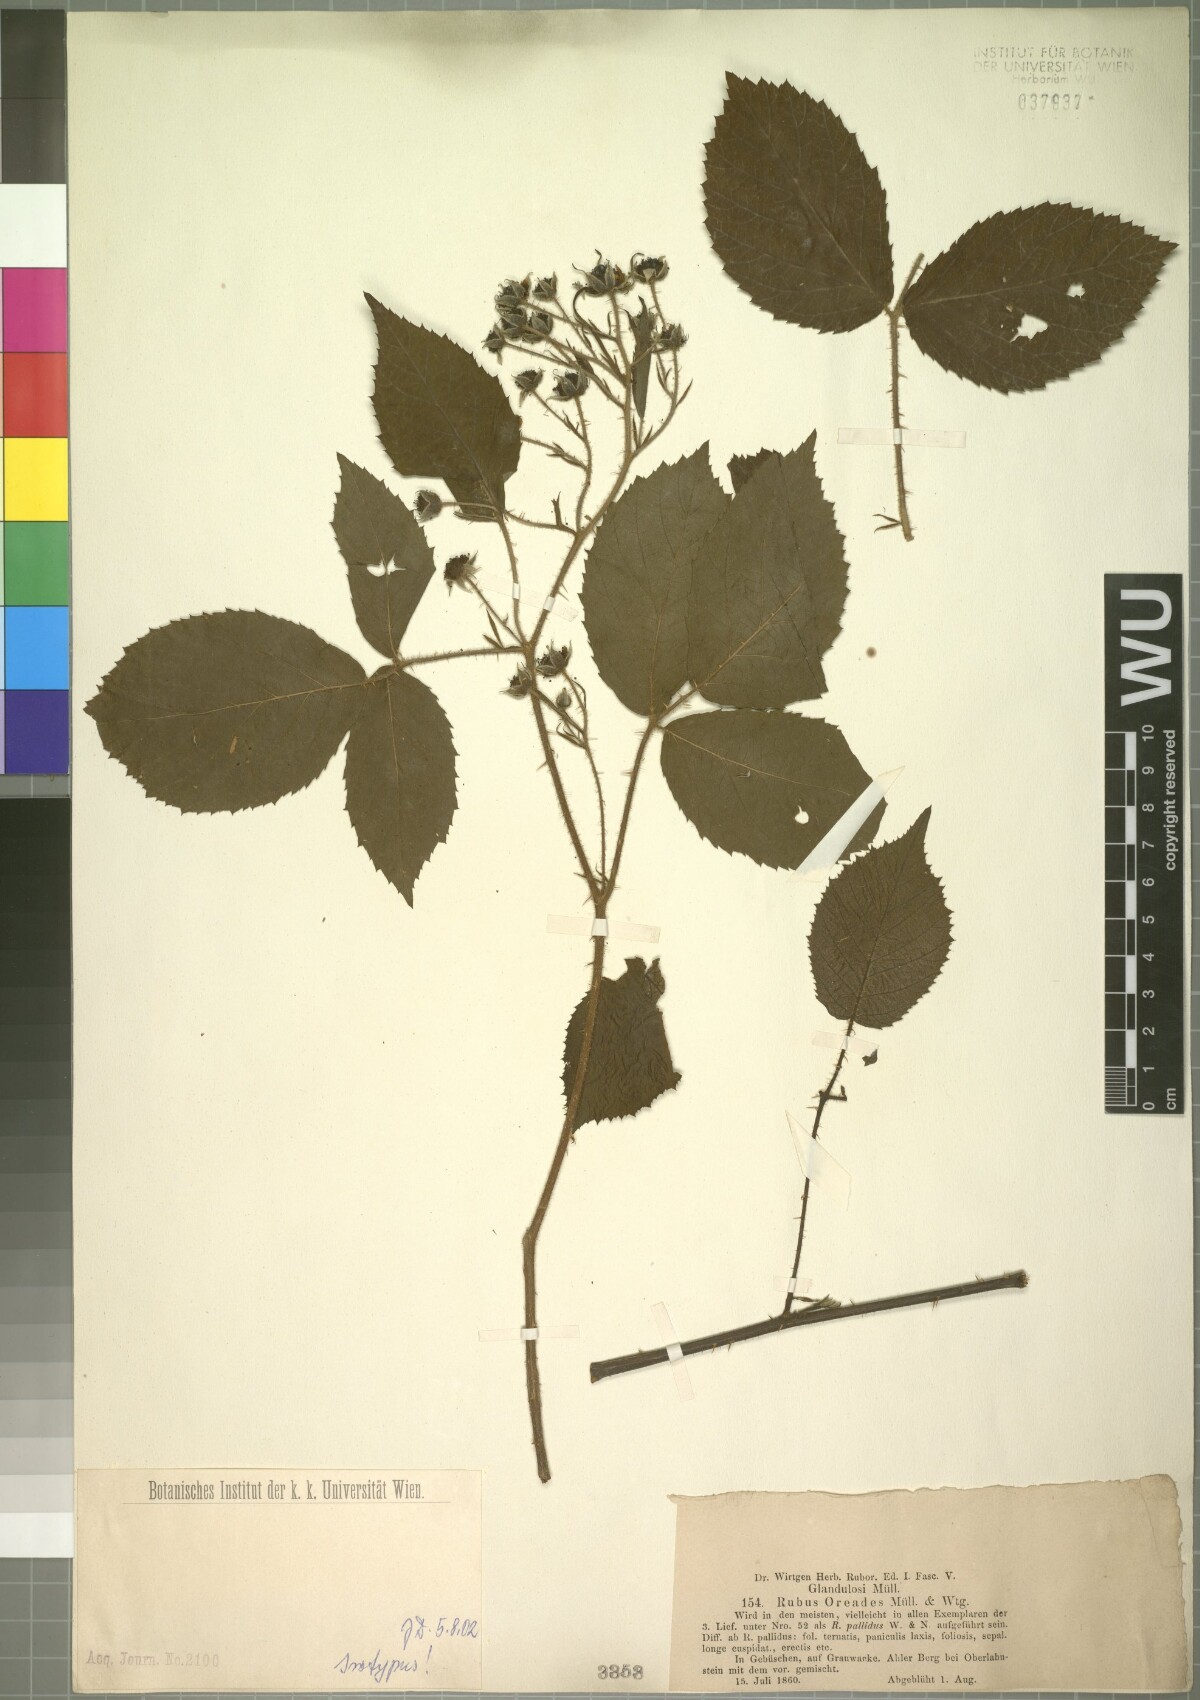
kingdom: Plantae
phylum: Tracheophyta
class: Magnoliopsida
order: Rosales
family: Rosaceae
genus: Rubus
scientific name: Rubus oreades
